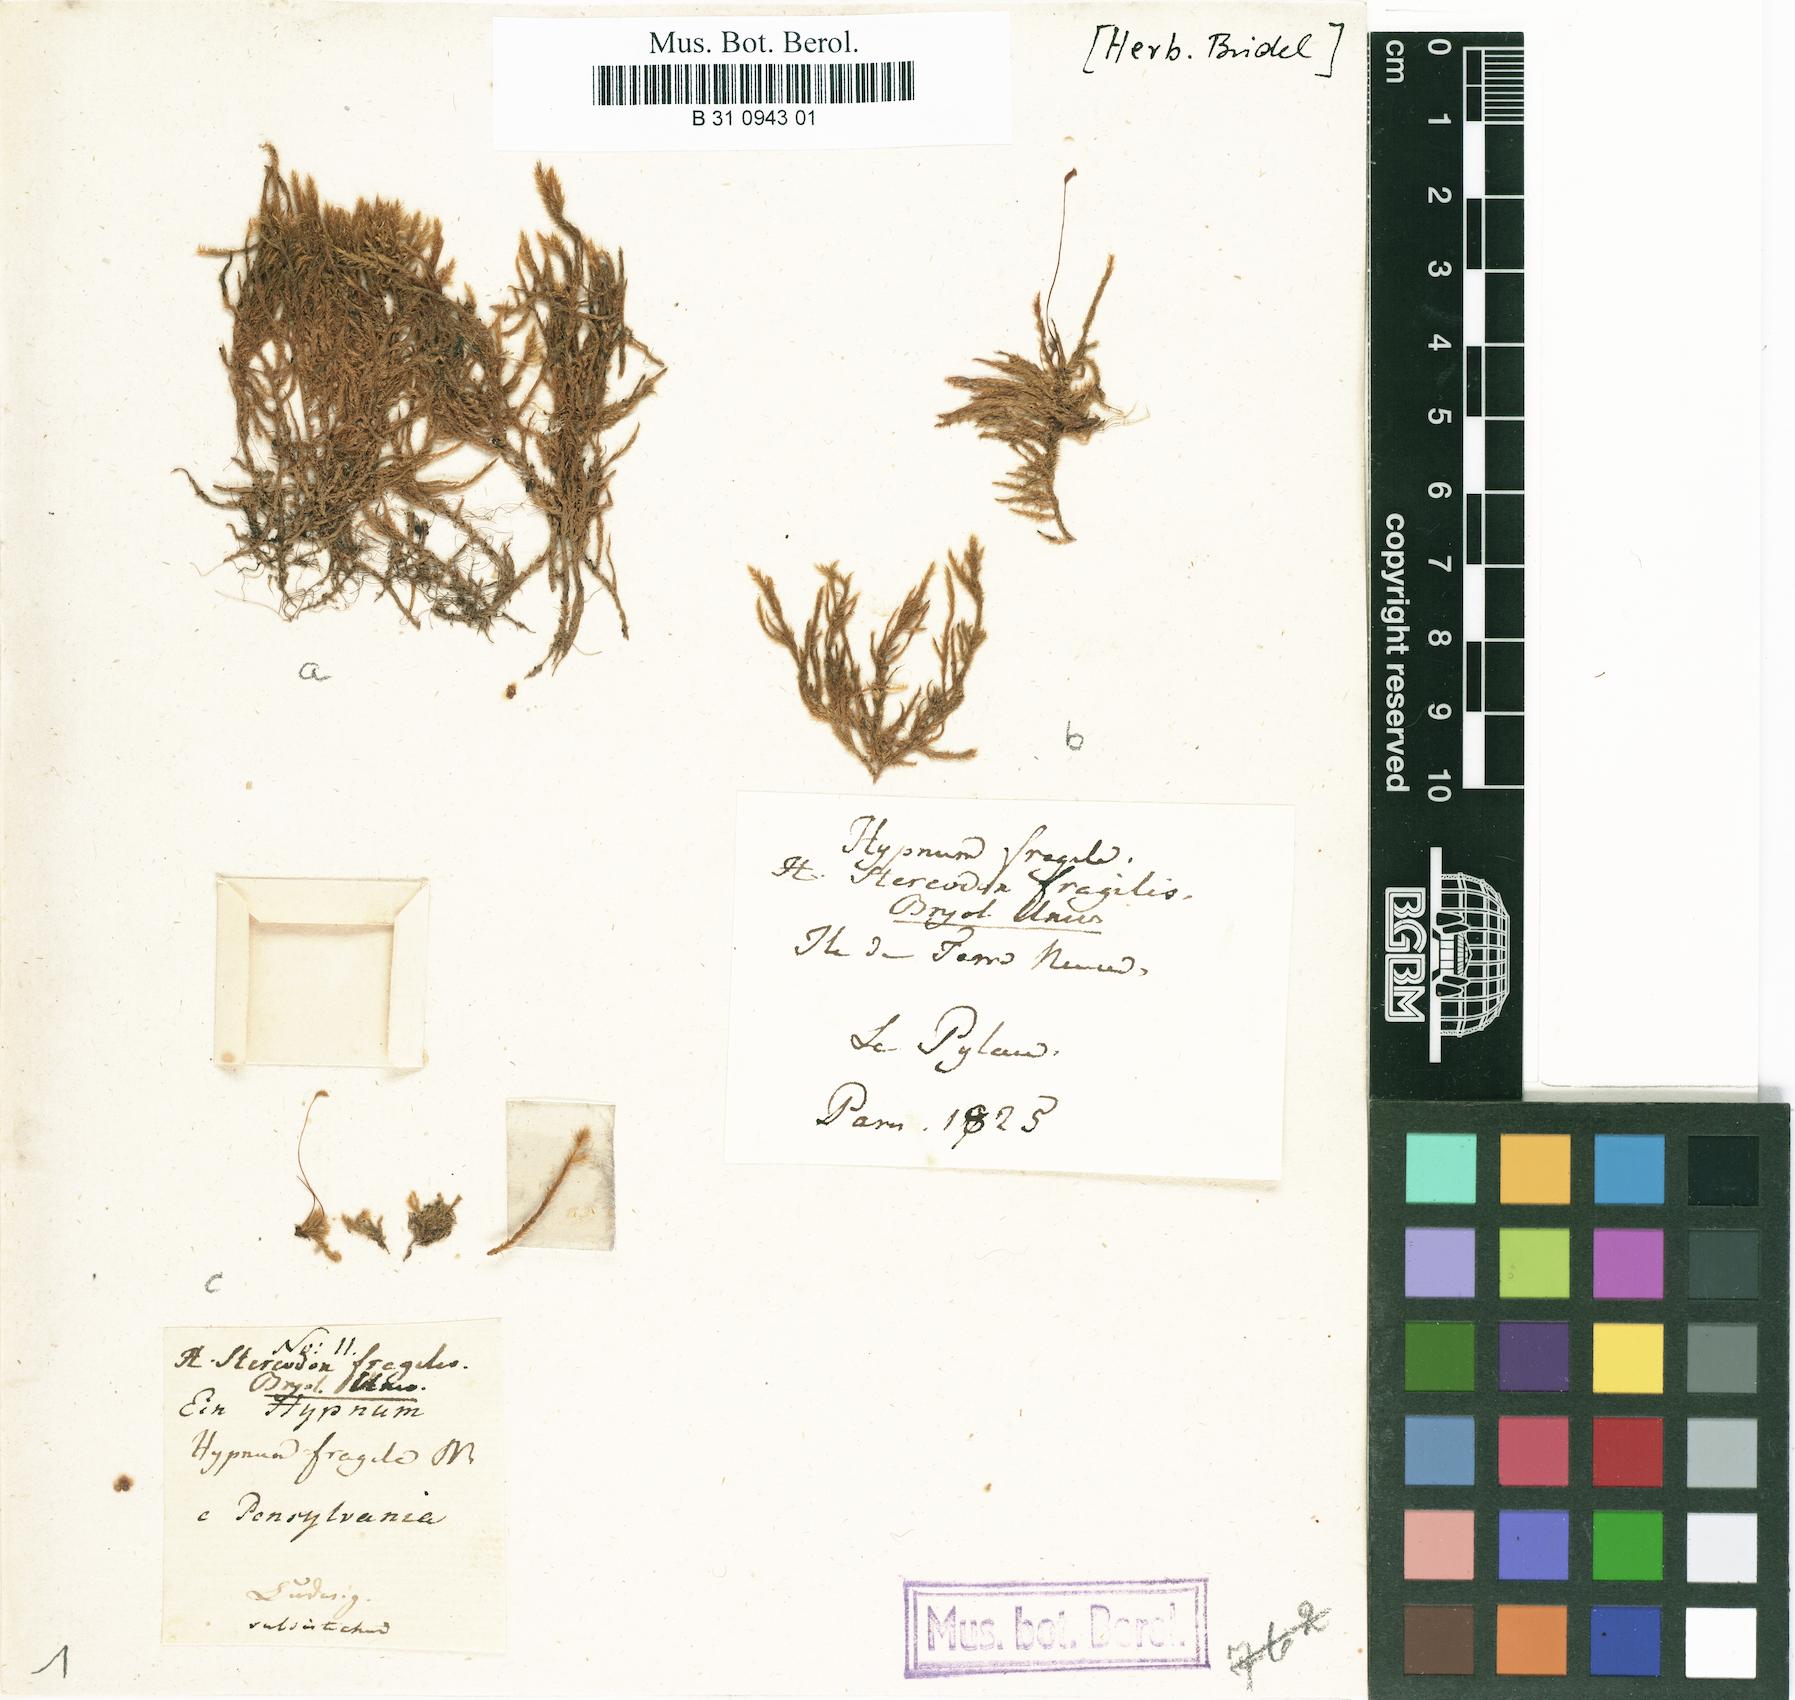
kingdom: Plantae
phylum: Bryophyta
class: Bryopsida
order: Hypnales
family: Amblystegiaceae
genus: Campylium
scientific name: Campylium chrysophyllum
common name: Goldenleaf campylium moss
